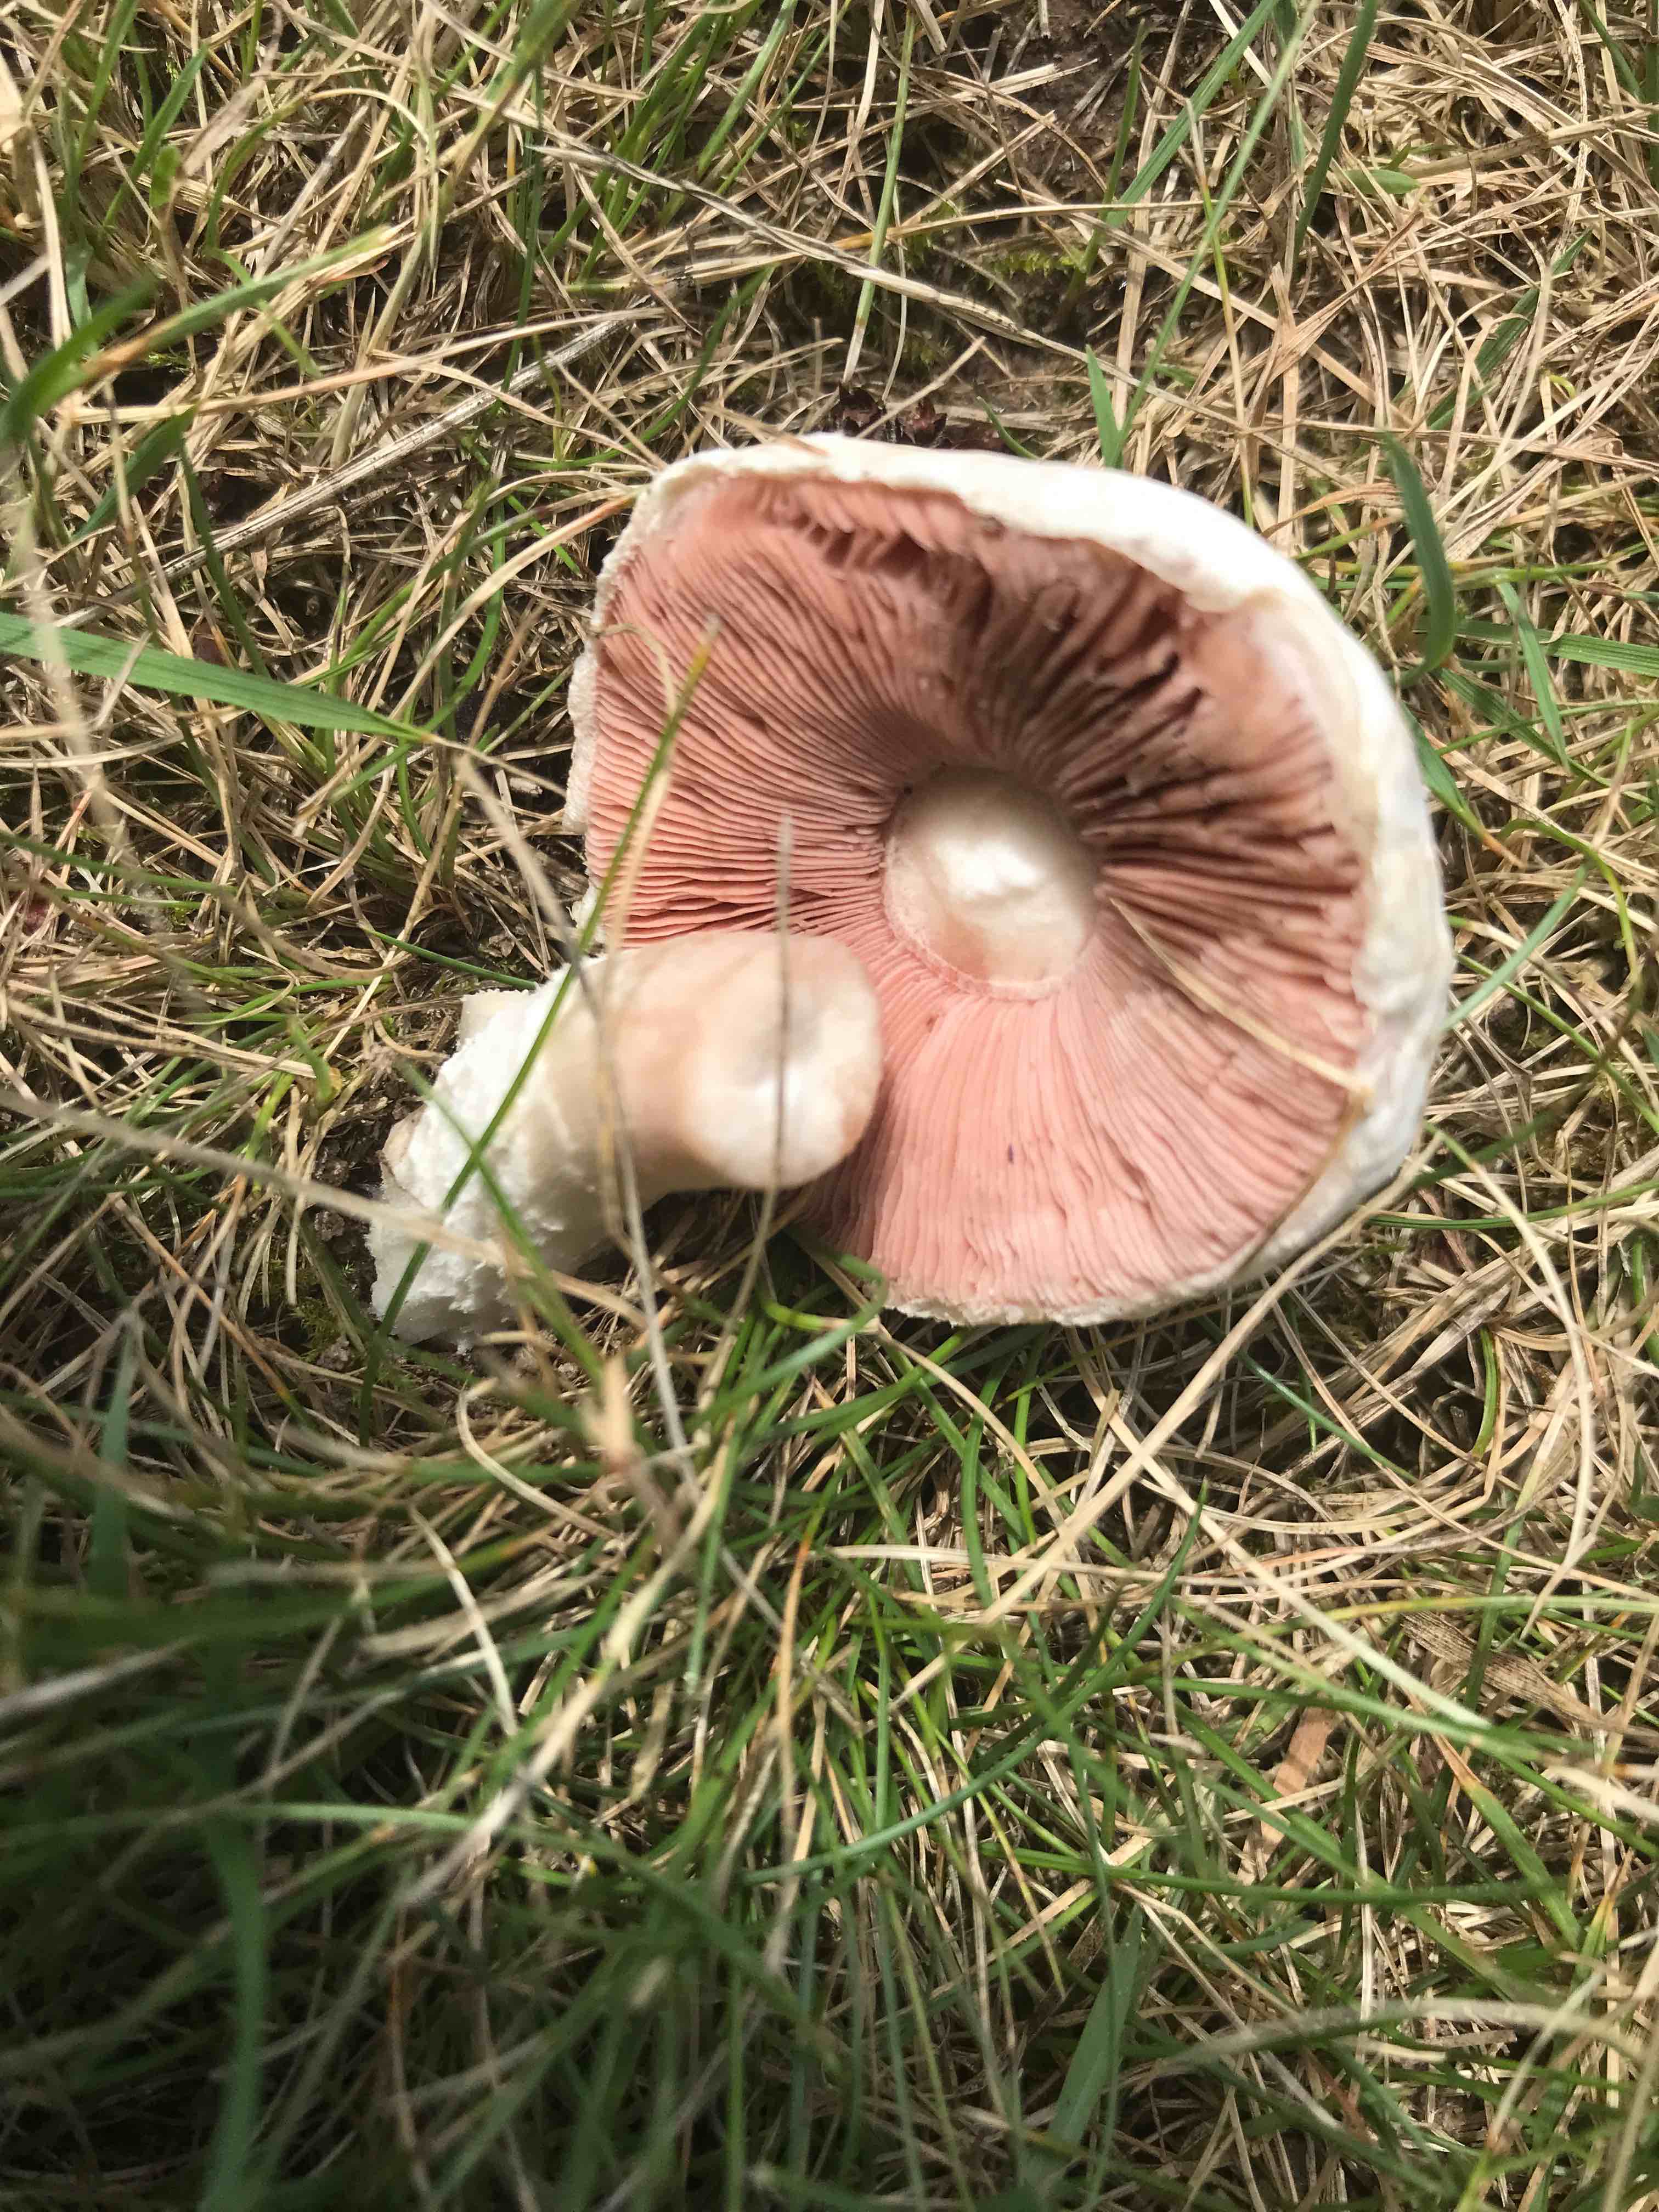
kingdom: Fungi
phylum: Basidiomycota
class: Agaricomycetes
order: Agaricales
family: Agaricaceae
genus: Agaricus
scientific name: Agaricus campestris
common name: mark-champignon
